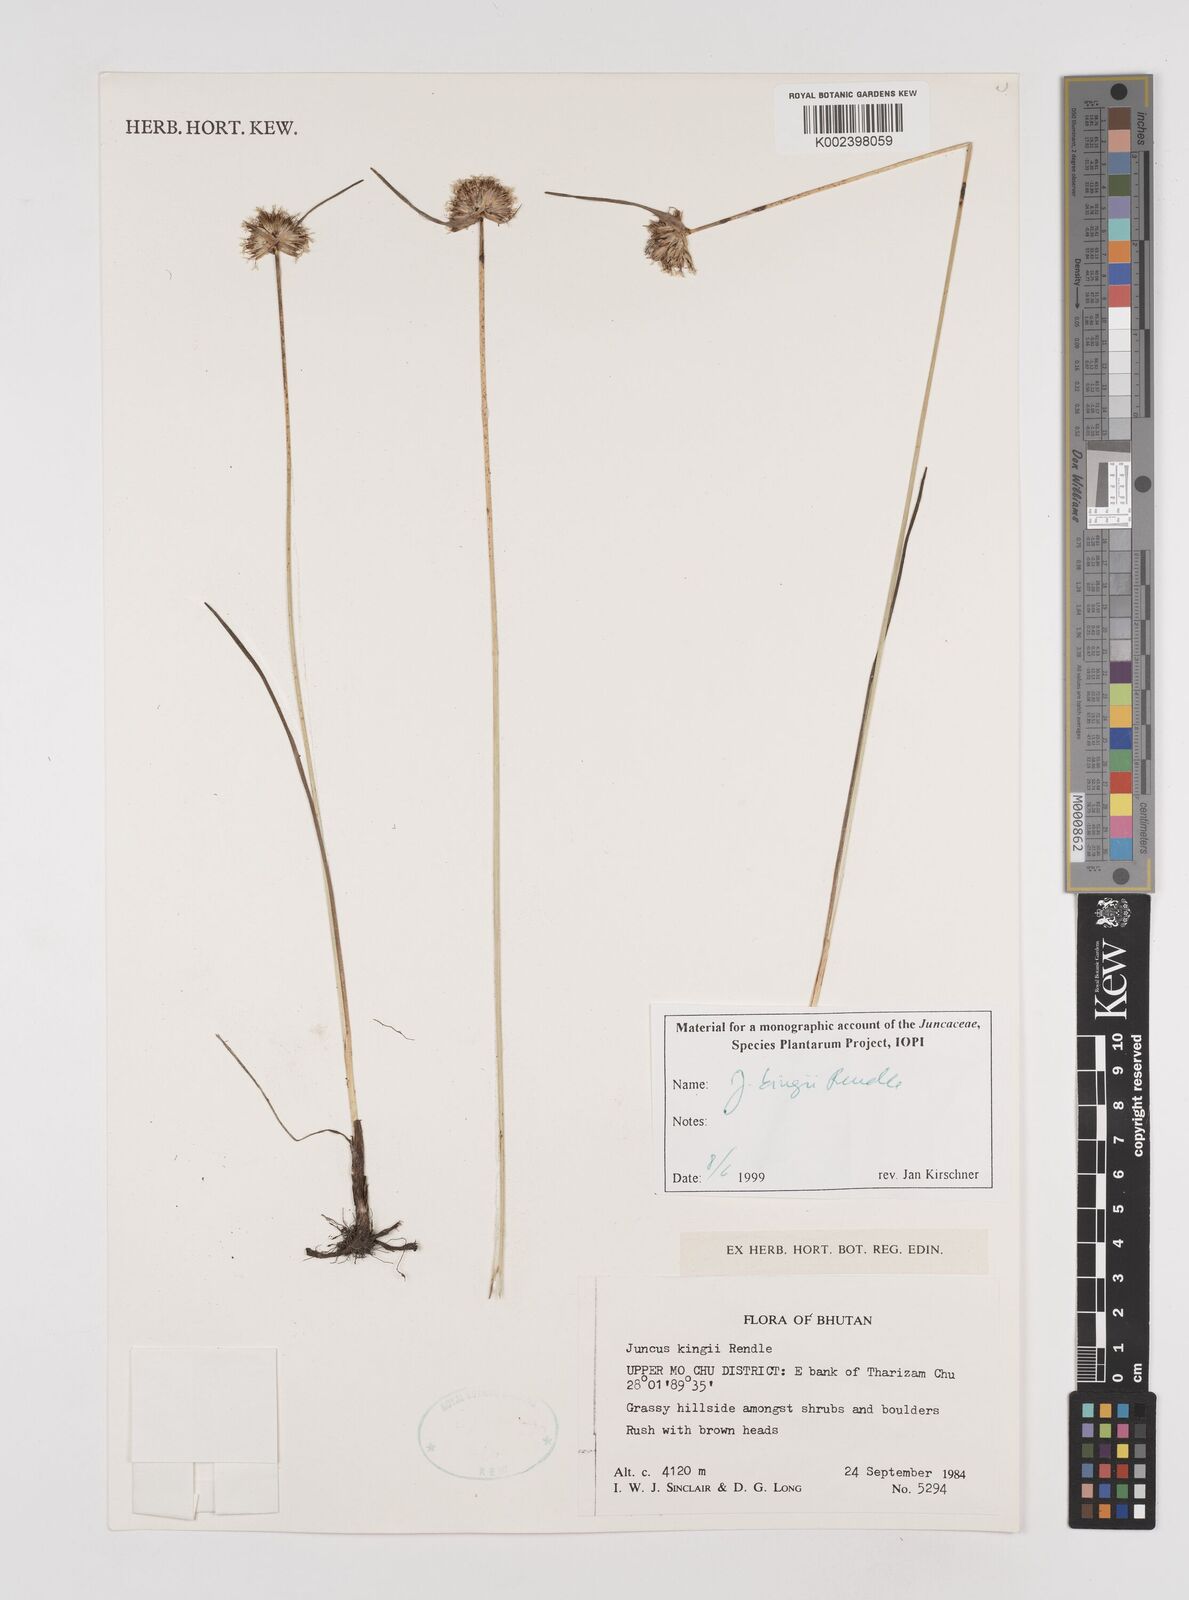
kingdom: Plantae
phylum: Tracheophyta
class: Liliopsida
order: Poales
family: Juncaceae
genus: Juncus
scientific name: Juncus kingii
